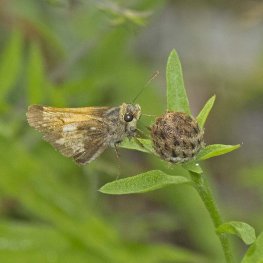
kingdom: Animalia
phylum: Arthropoda
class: Insecta
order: Lepidoptera
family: Hesperiidae
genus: Lon
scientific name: Lon hobomok
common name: Hobomok Skipper
